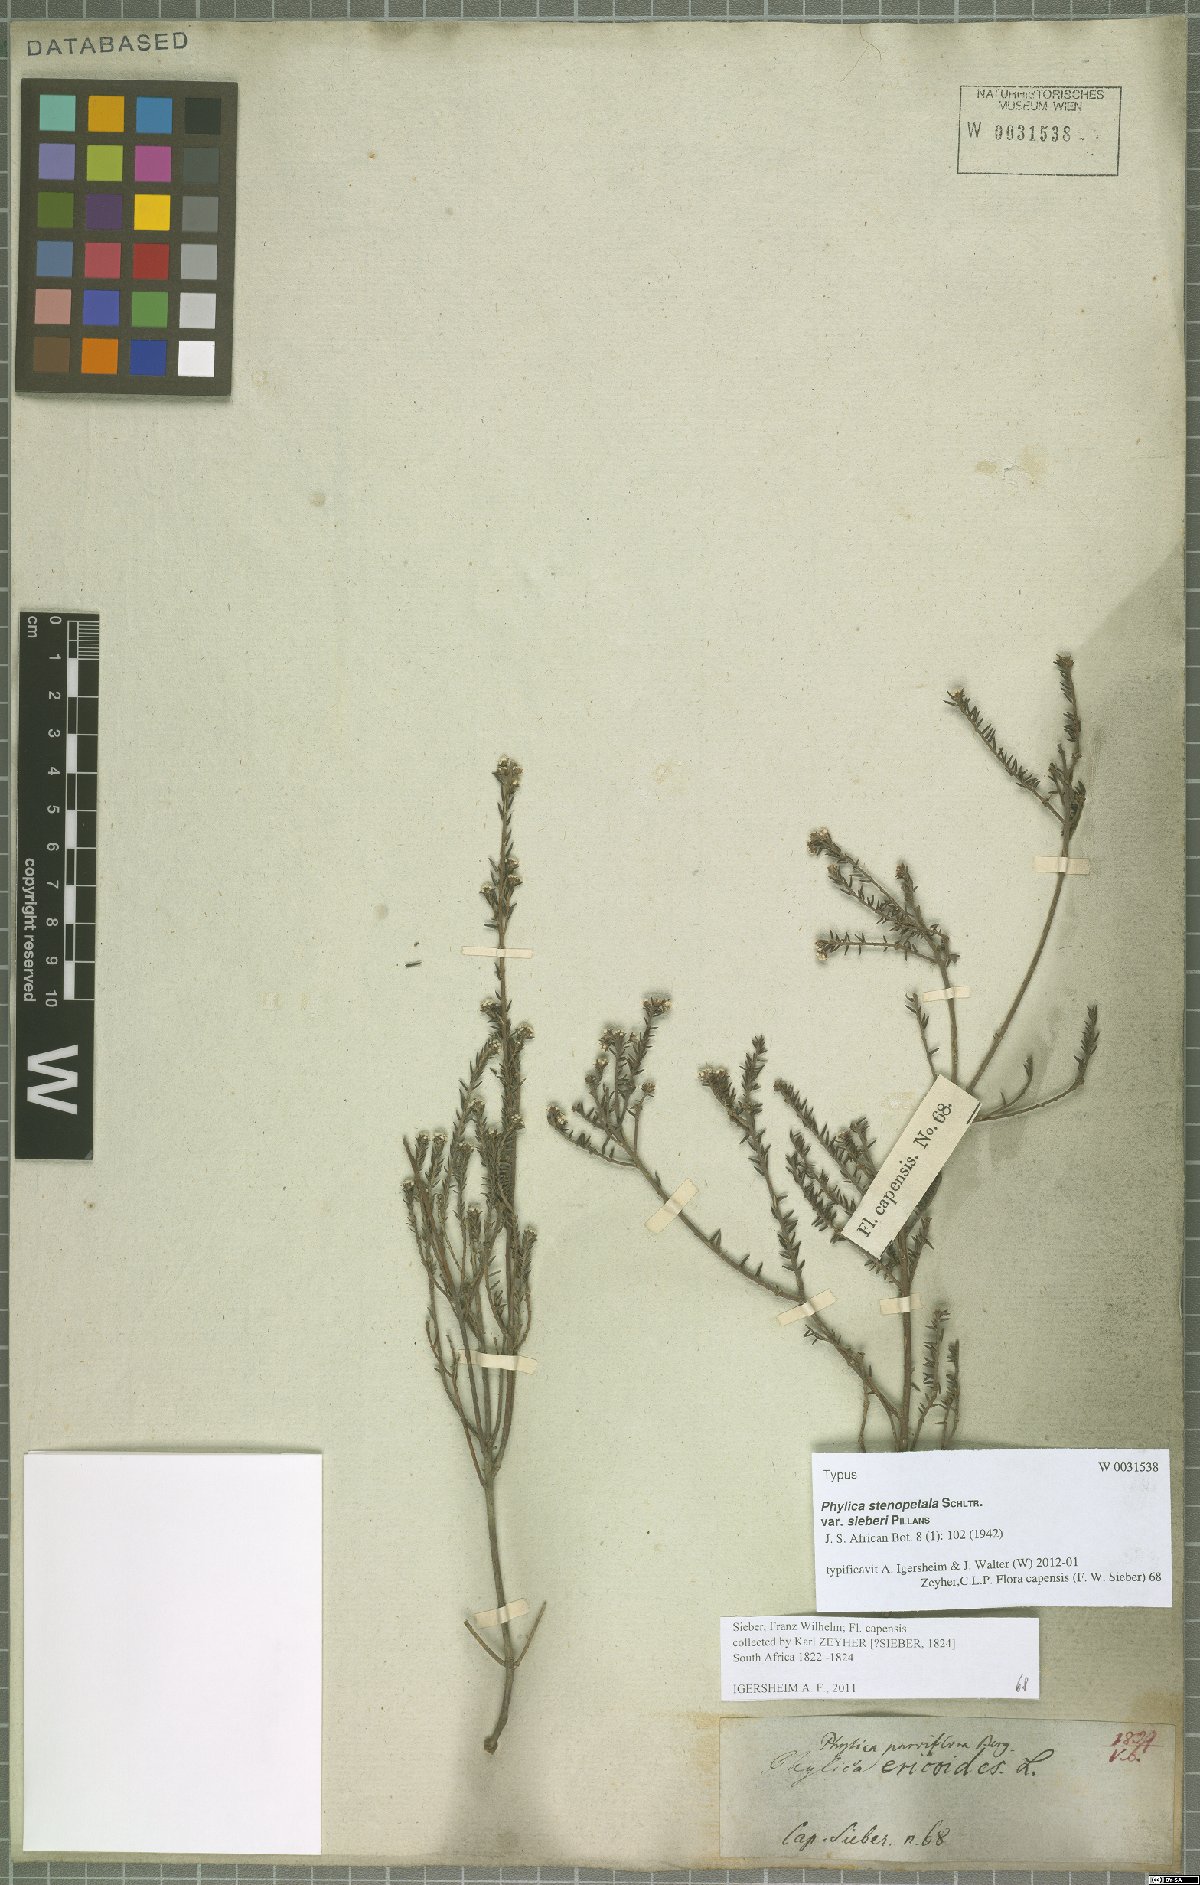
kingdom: Plantae
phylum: Tracheophyta
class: Magnoliopsida
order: Rosales
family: Rhamnaceae
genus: Phylica
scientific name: Phylica stenopetala
